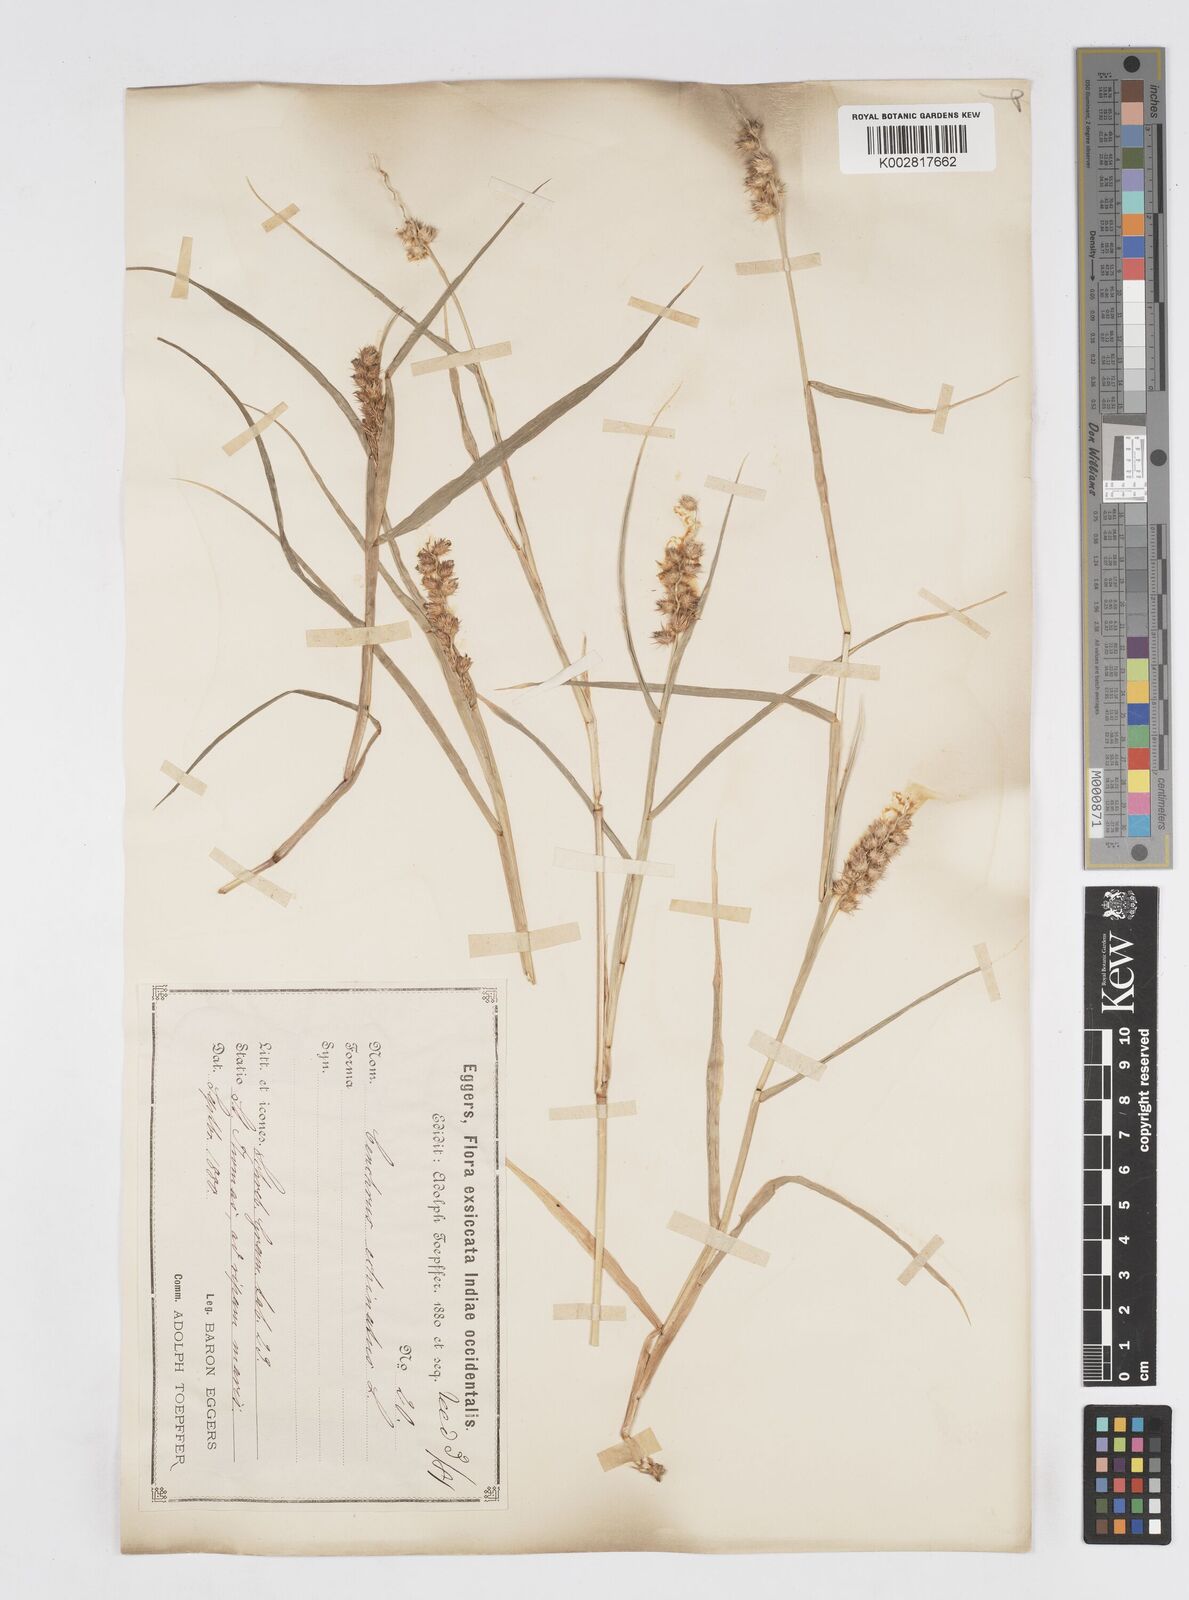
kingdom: Plantae
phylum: Tracheophyta
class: Liliopsida
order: Poales
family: Poaceae
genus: Cenchrus
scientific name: Cenchrus
